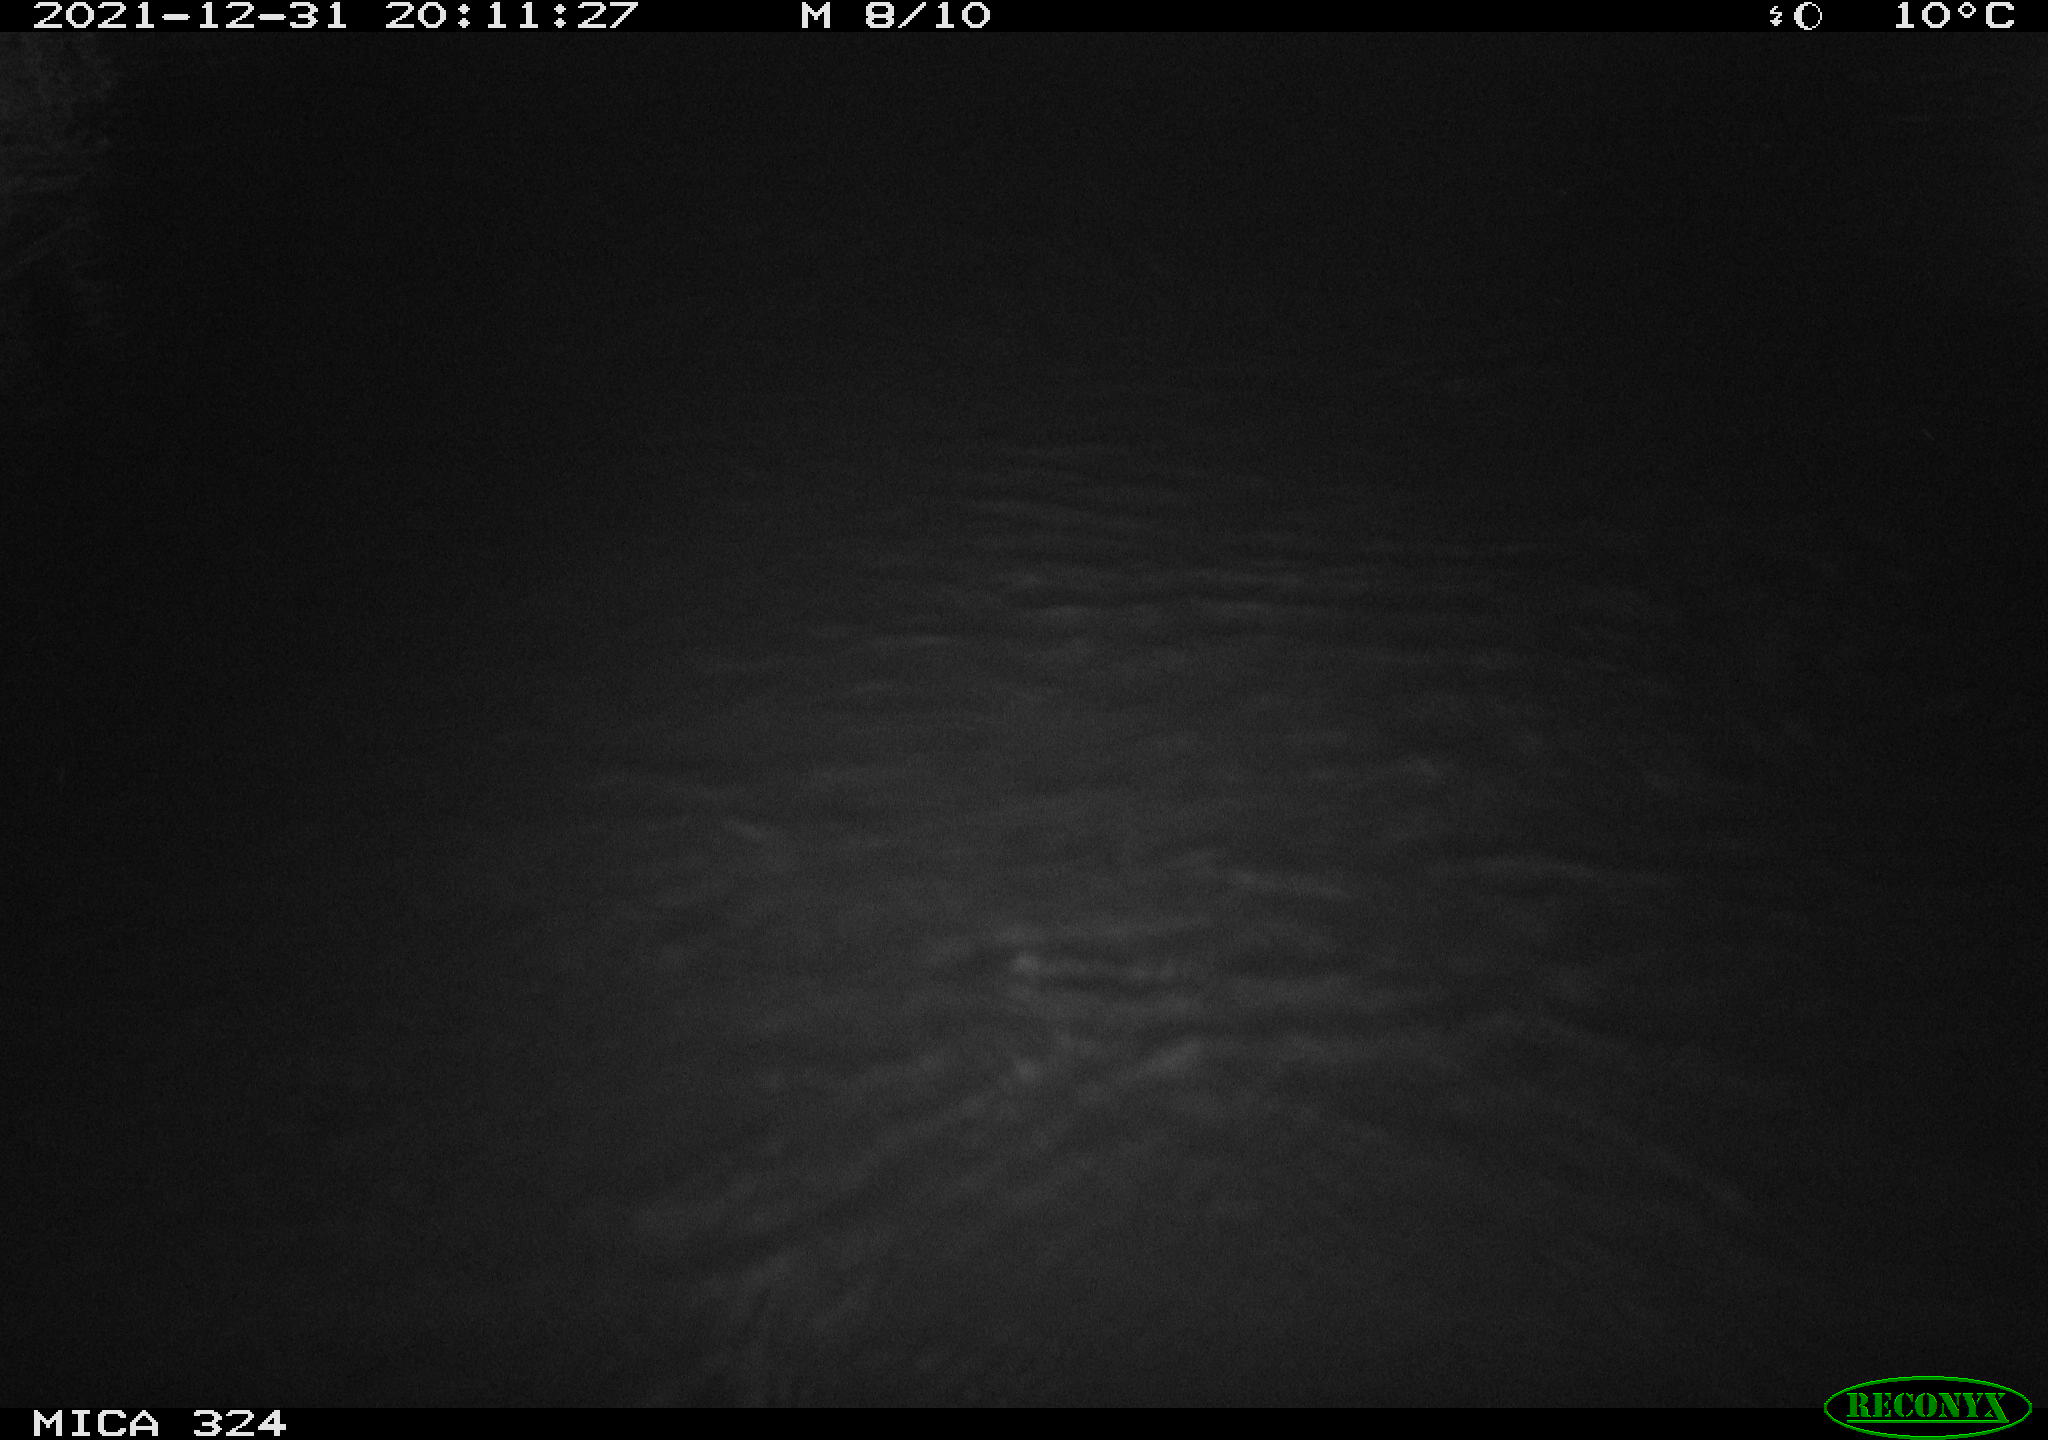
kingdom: Animalia
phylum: Chordata
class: Mammalia
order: Rodentia
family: Cricetidae
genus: Ondatra
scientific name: Ondatra zibethicus
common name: Muskrat
